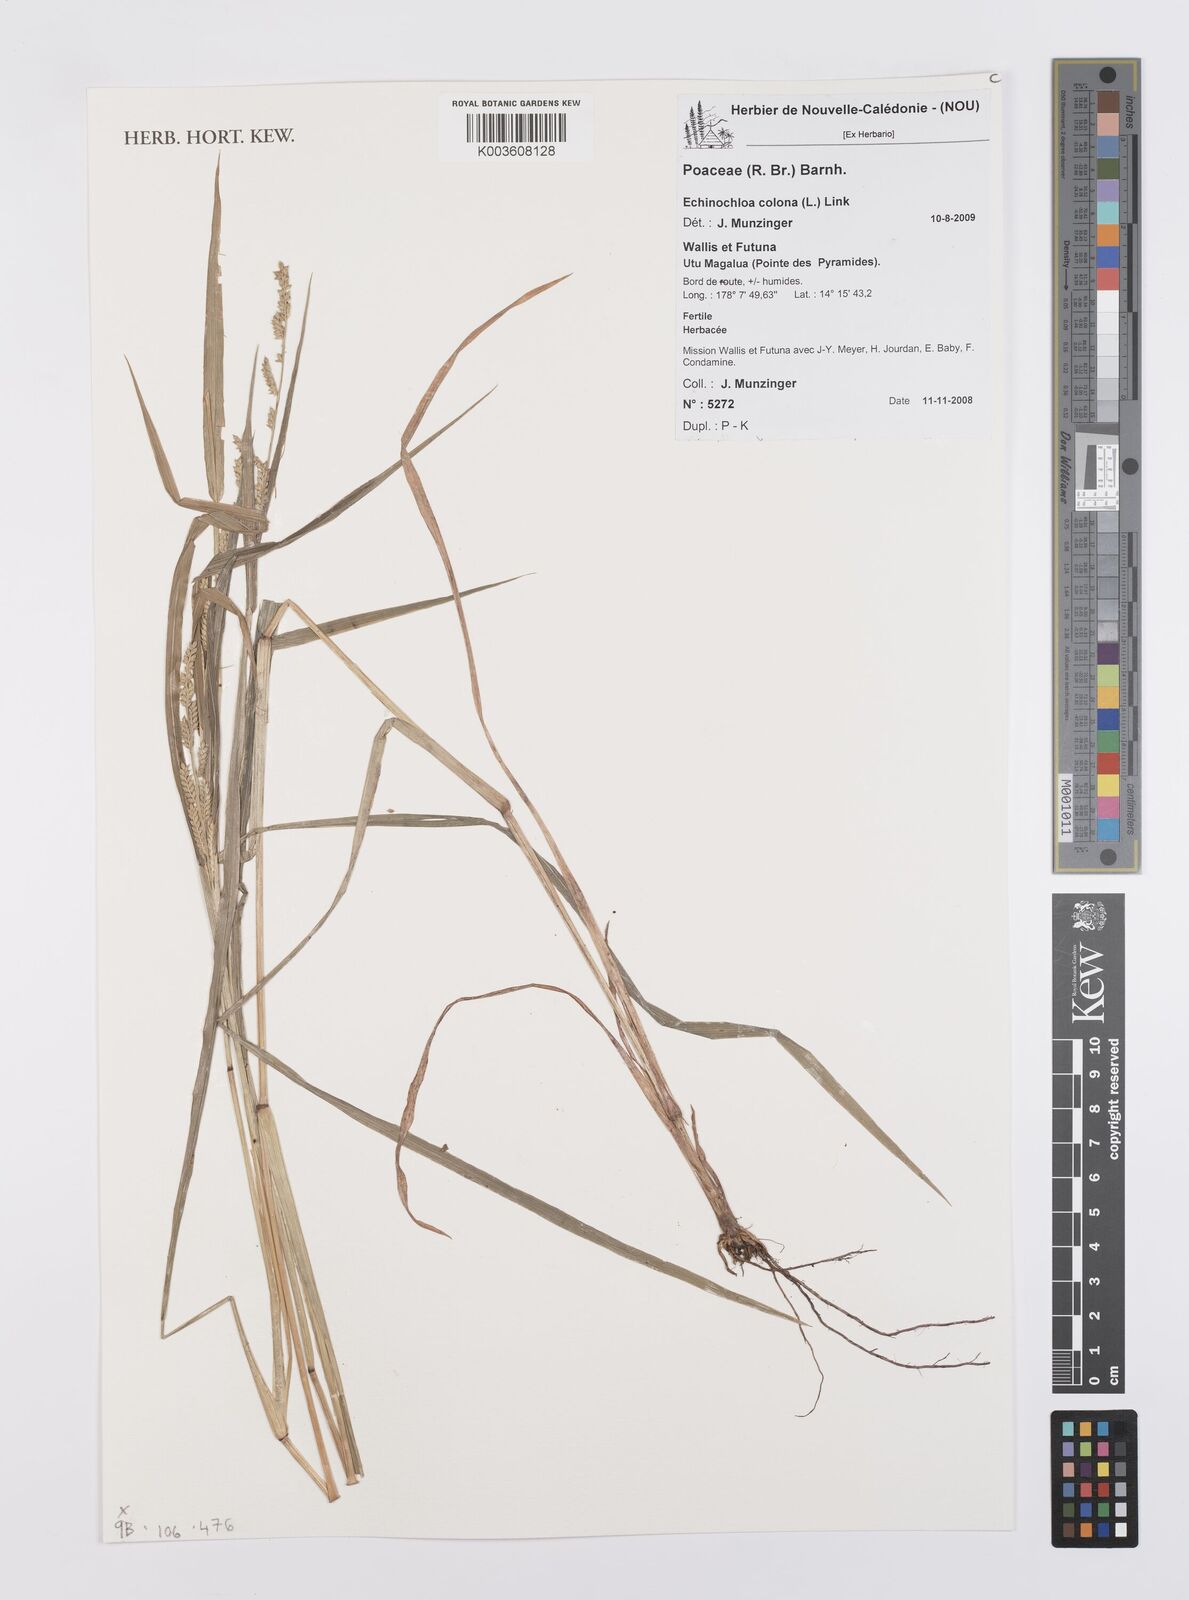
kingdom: Plantae
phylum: Tracheophyta
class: Liliopsida
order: Poales
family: Poaceae
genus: Echinochloa
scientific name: Echinochloa colonum
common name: Jungle rice
